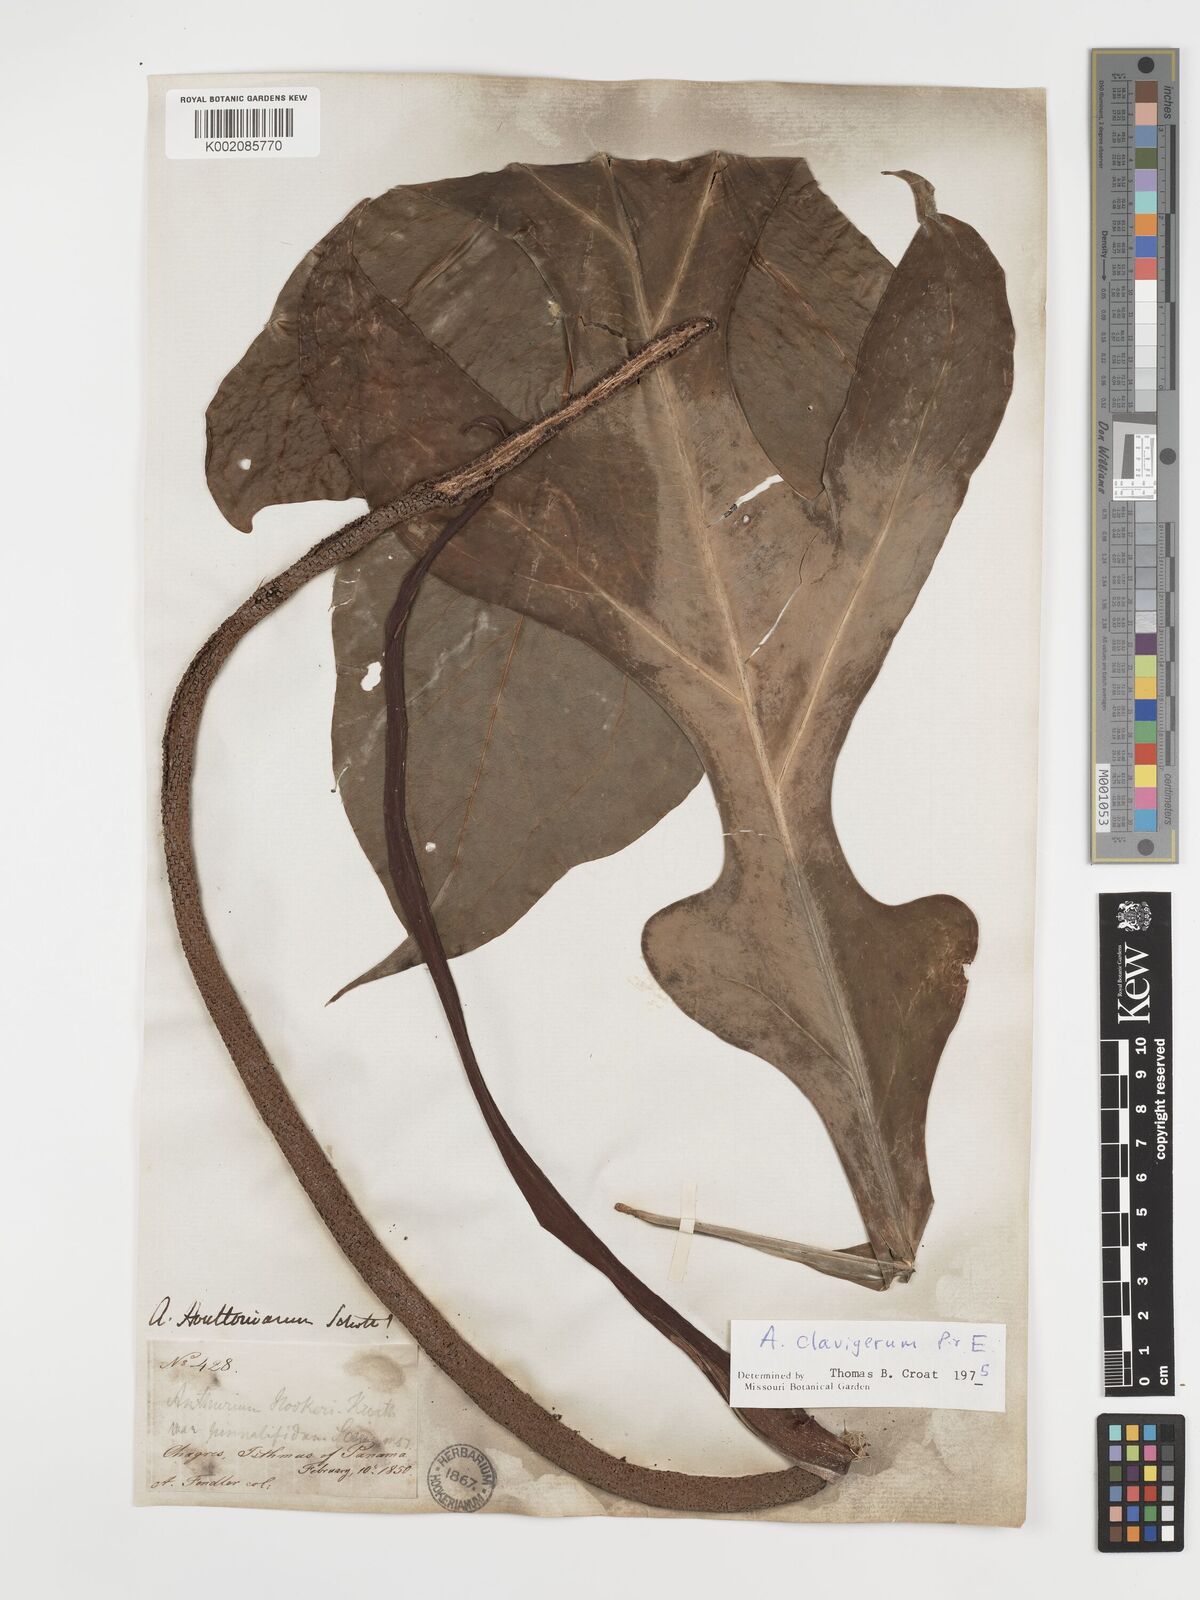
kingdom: Plantae
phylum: Tracheophyta
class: Liliopsida
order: Alismatales
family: Araceae
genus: Anthurium
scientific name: Anthurium clavigerum
